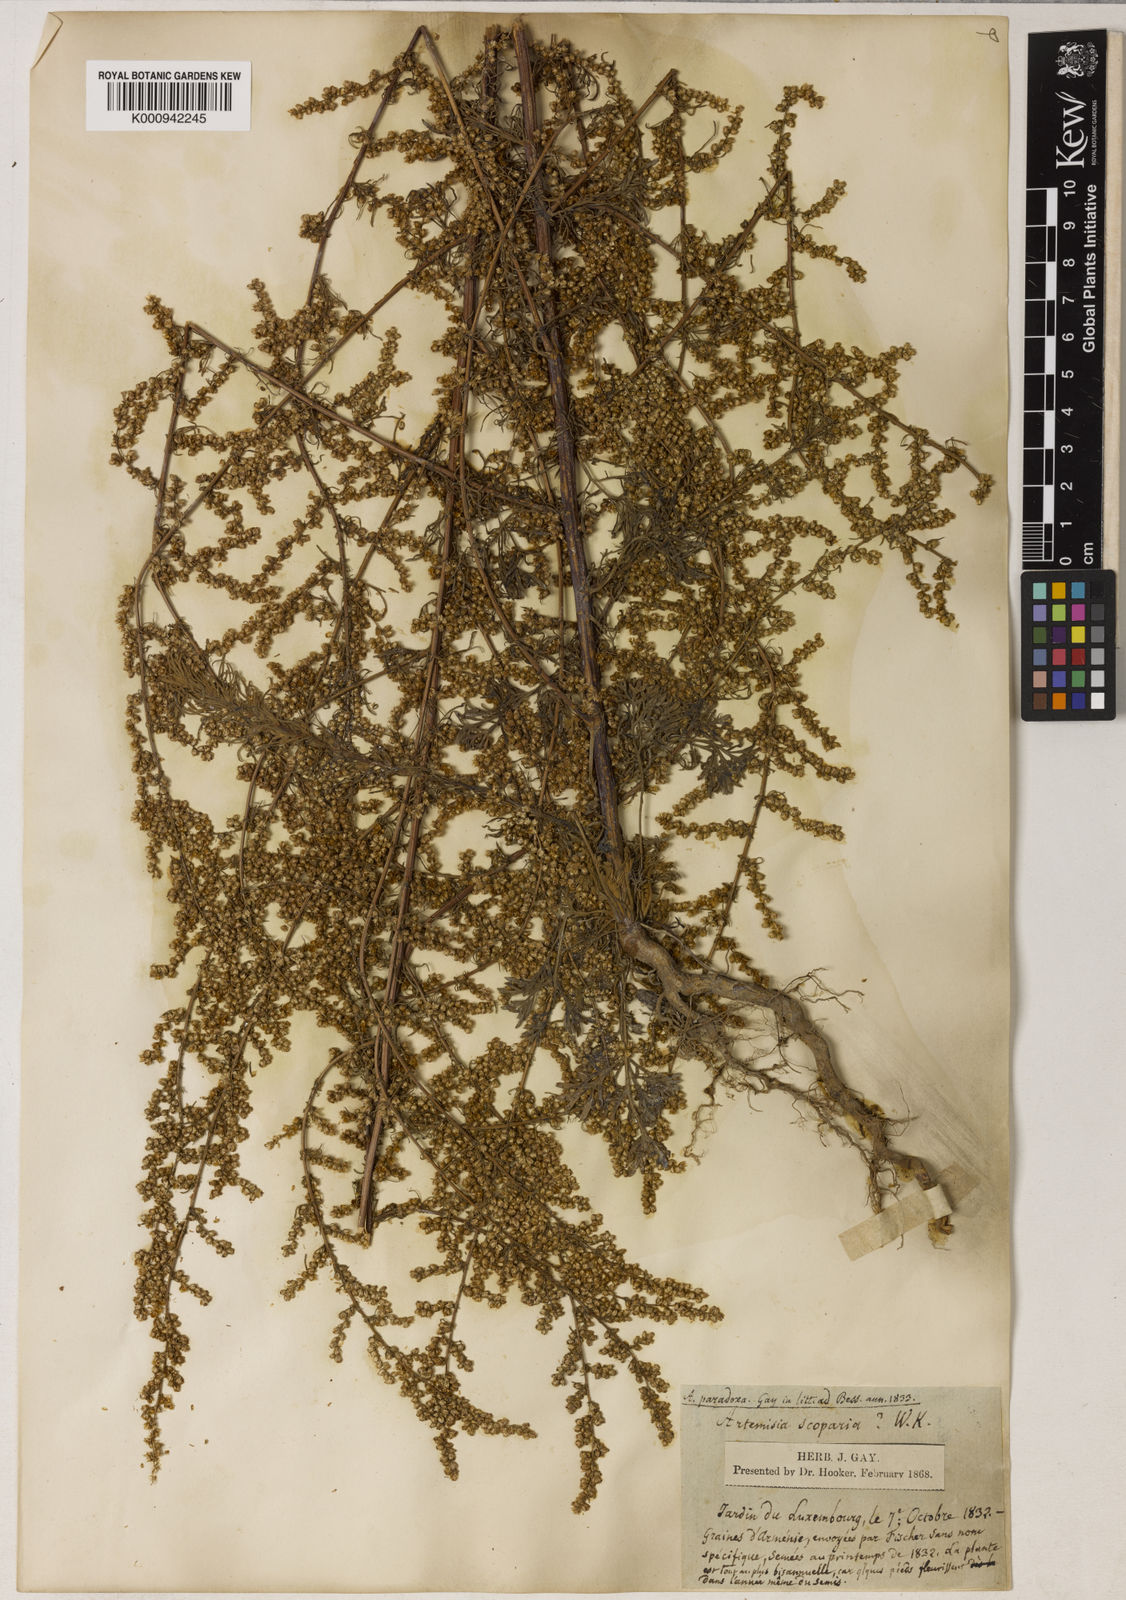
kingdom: Plantae
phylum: Tracheophyta
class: Magnoliopsida
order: Asterales
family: Asteraceae
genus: Artemisia
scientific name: Artemisia scoparia
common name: Redstem wormwood
